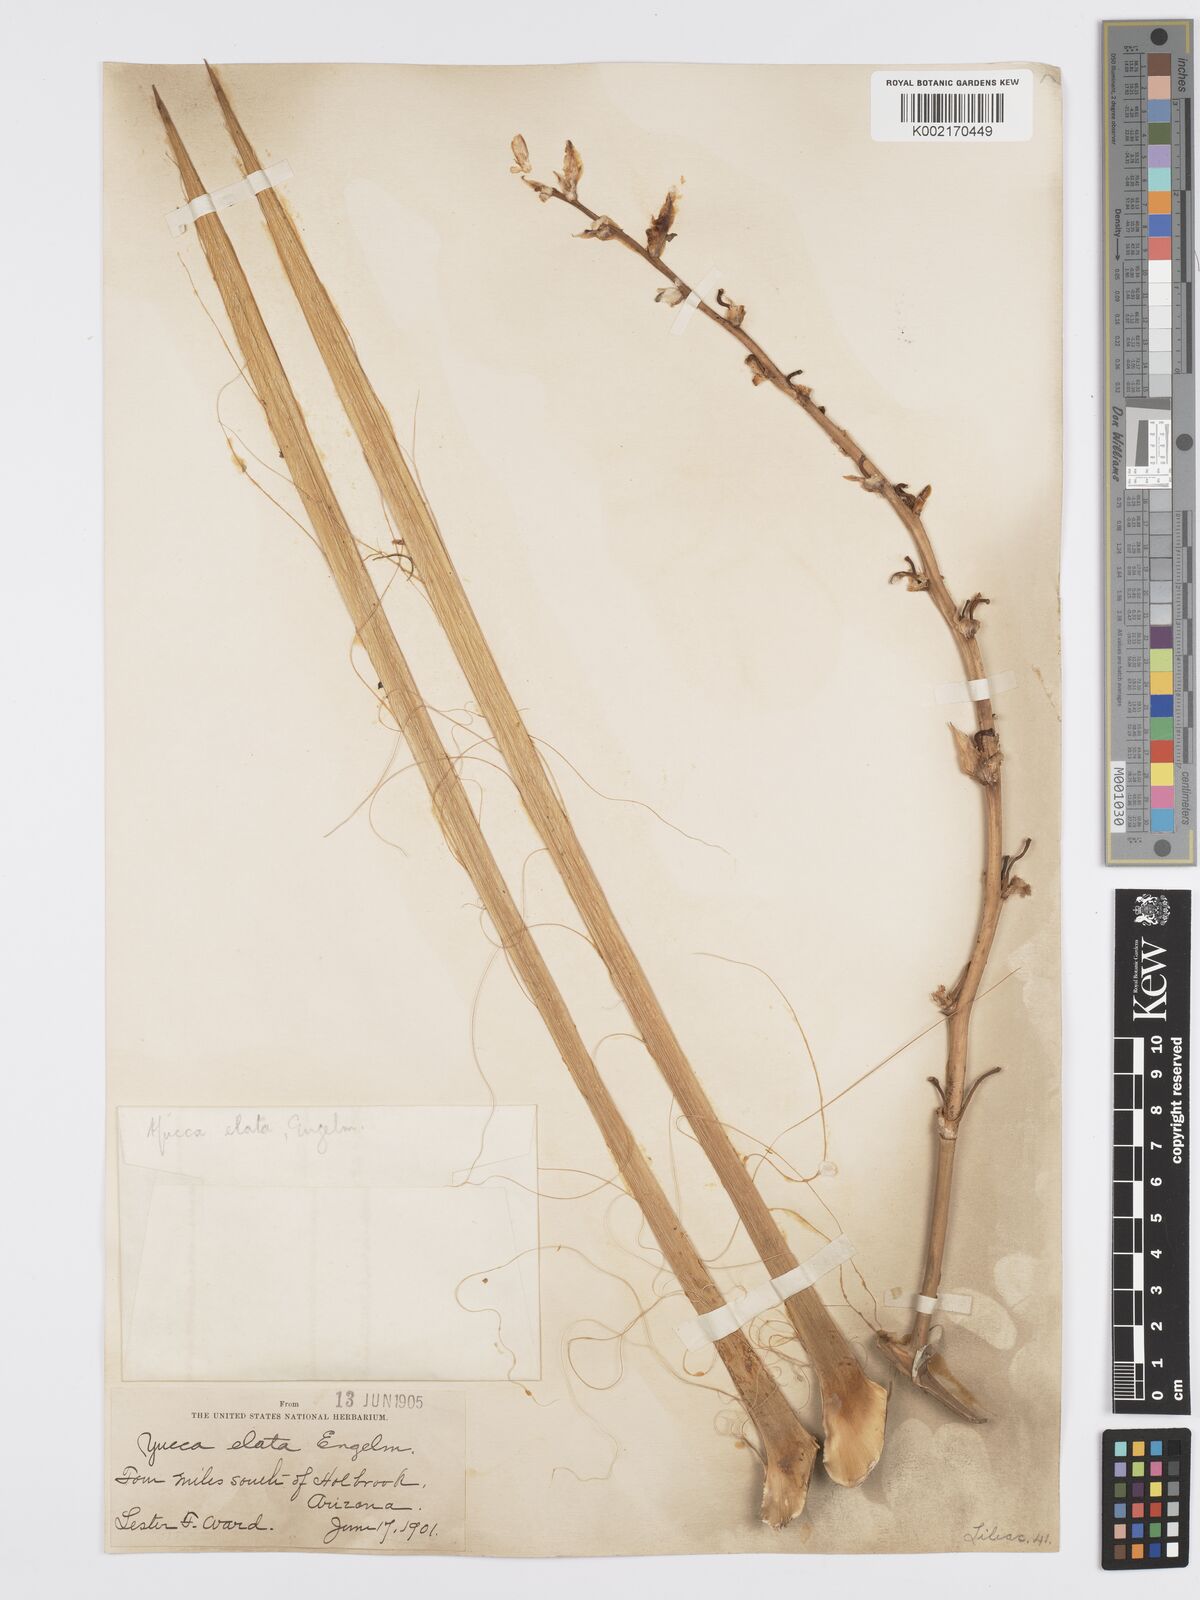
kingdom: Plantae
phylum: Tracheophyta
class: Liliopsida
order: Asparagales
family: Asparagaceae
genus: Yucca
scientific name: Yucca elata
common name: Palmella
